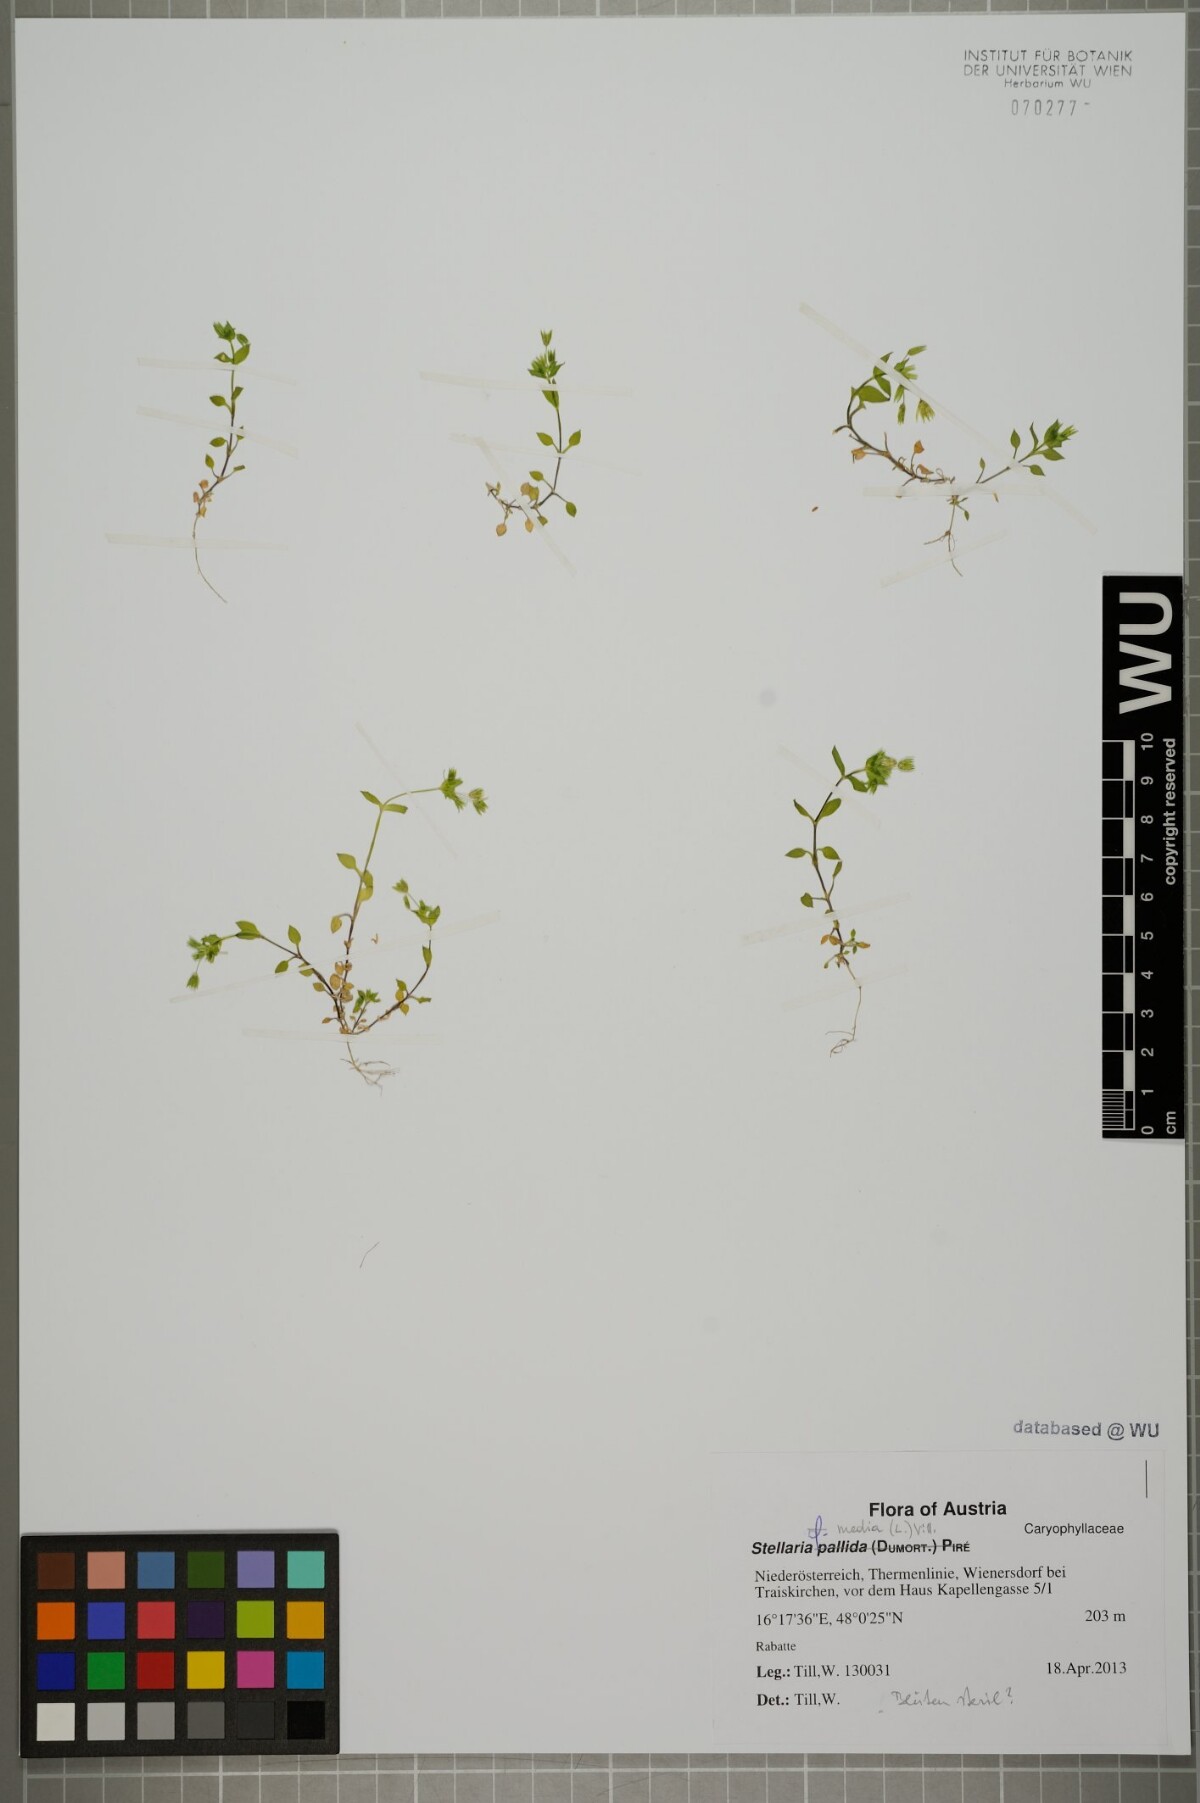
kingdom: Plantae
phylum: Tracheophyta
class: Magnoliopsida
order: Caryophyllales
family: Caryophyllaceae
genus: Stellaria
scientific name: Stellaria media
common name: Common chickweed
